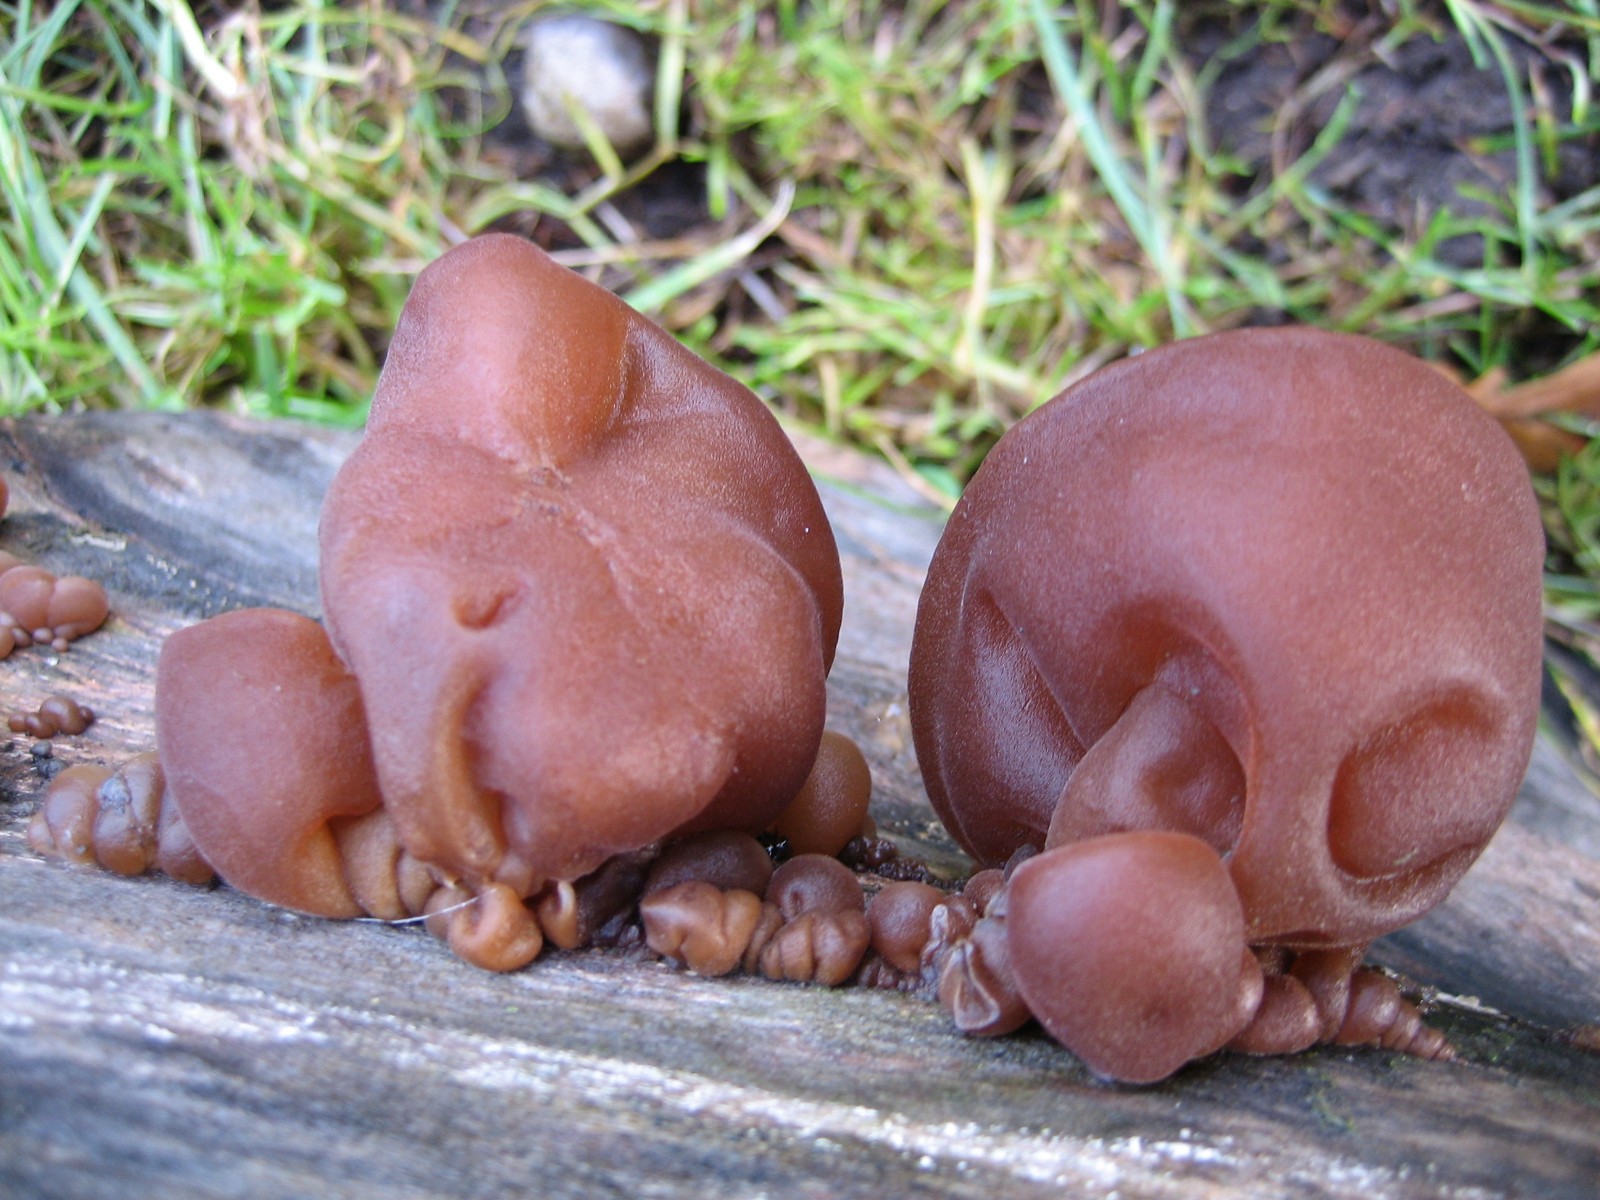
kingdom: Fungi
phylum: Basidiomycota
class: Agaricomycetes
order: Auriculariales
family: Auriculariaceae
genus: Auricularia
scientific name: Auricularia auricula-judae
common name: almindelig judasøre
